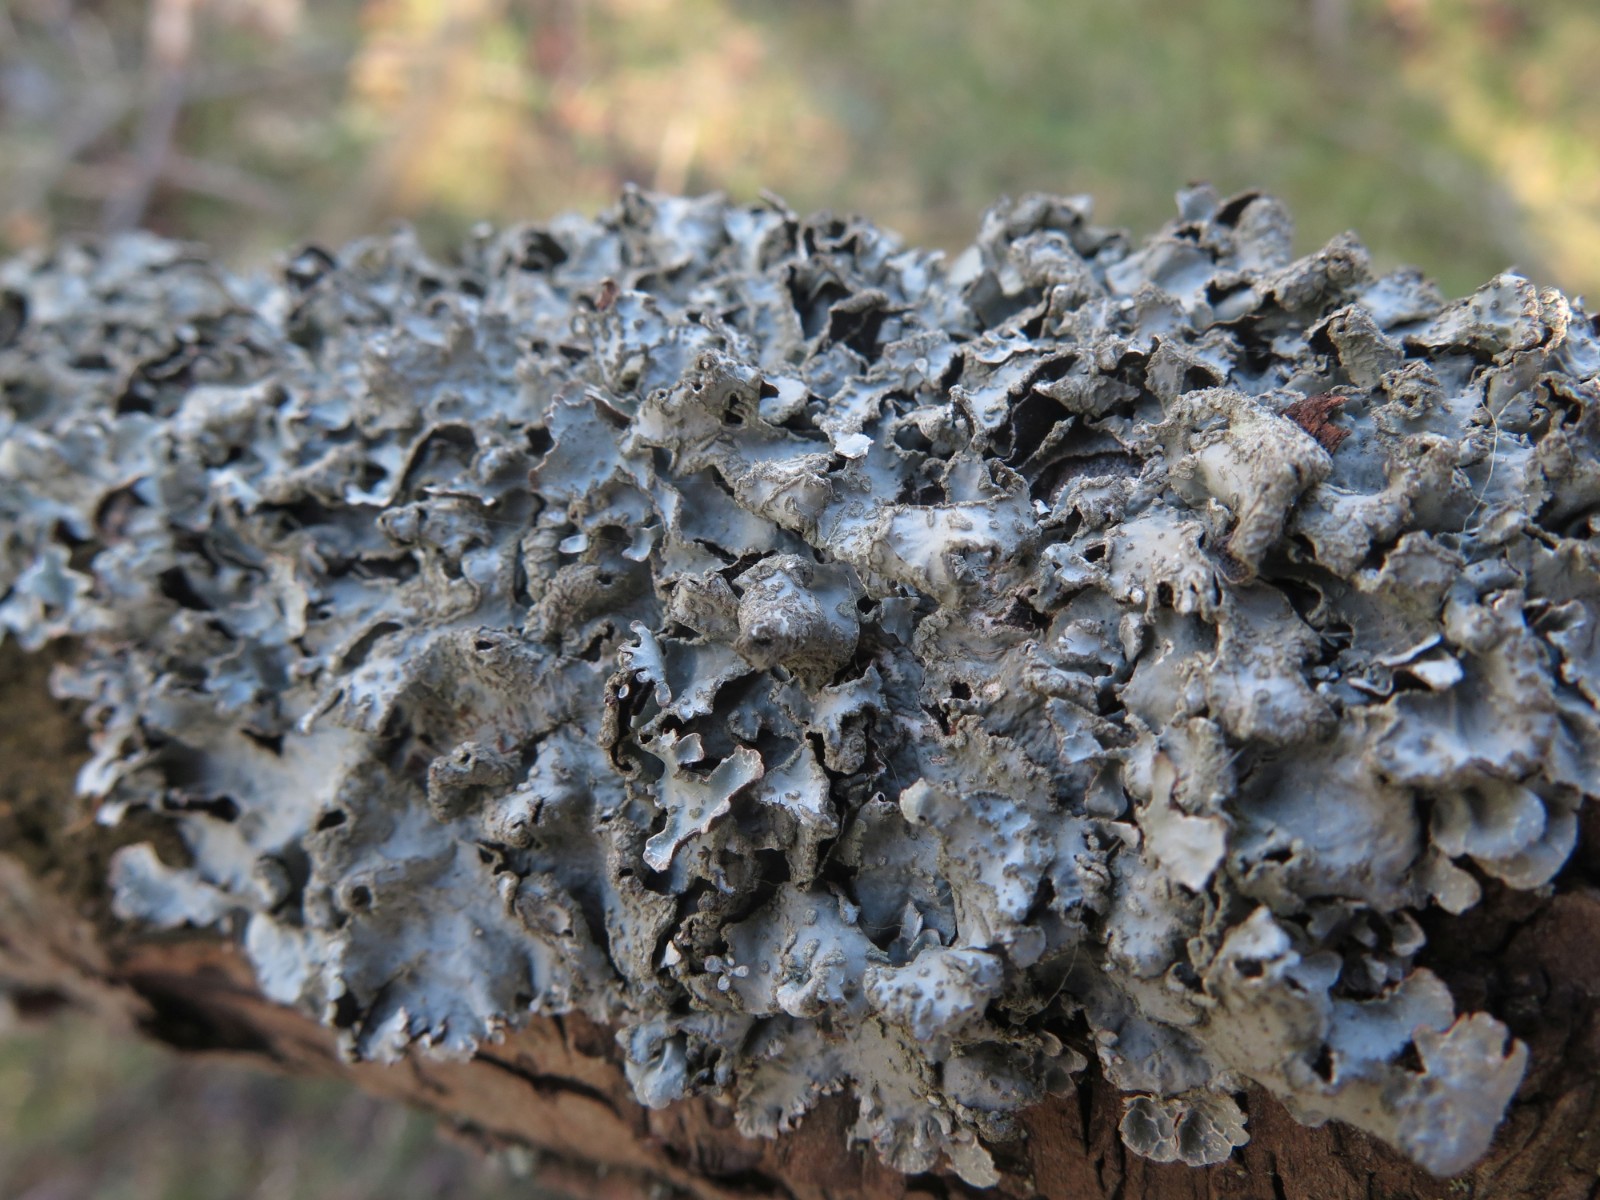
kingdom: Fungi
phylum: Ascomycota
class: Lecanoromycetes
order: Lecanorales
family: Parmeliaceae
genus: Parmelia
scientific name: Parmelia sulcata
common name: rynket skållav
